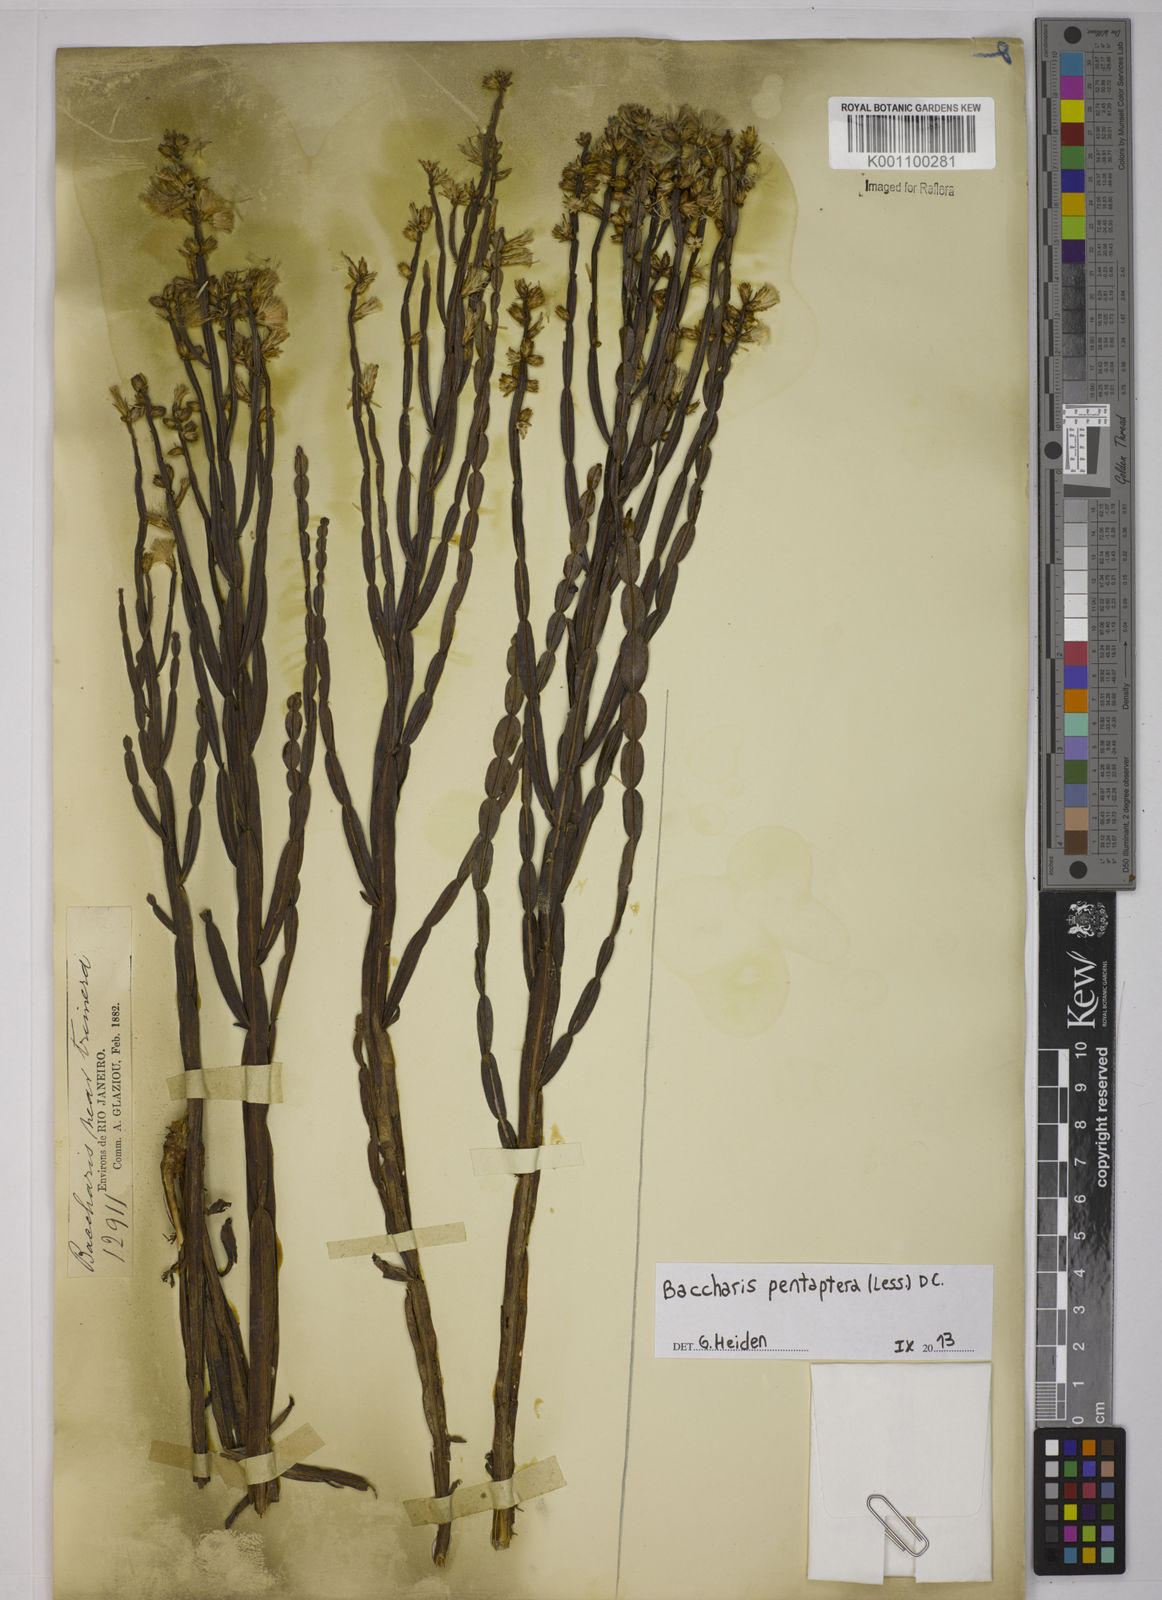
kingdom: Plantae
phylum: Tracheophyta
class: Magnoliopsida
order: Asterales
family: Asteraceae
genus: Baccharis
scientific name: Baccharis pentaptera
